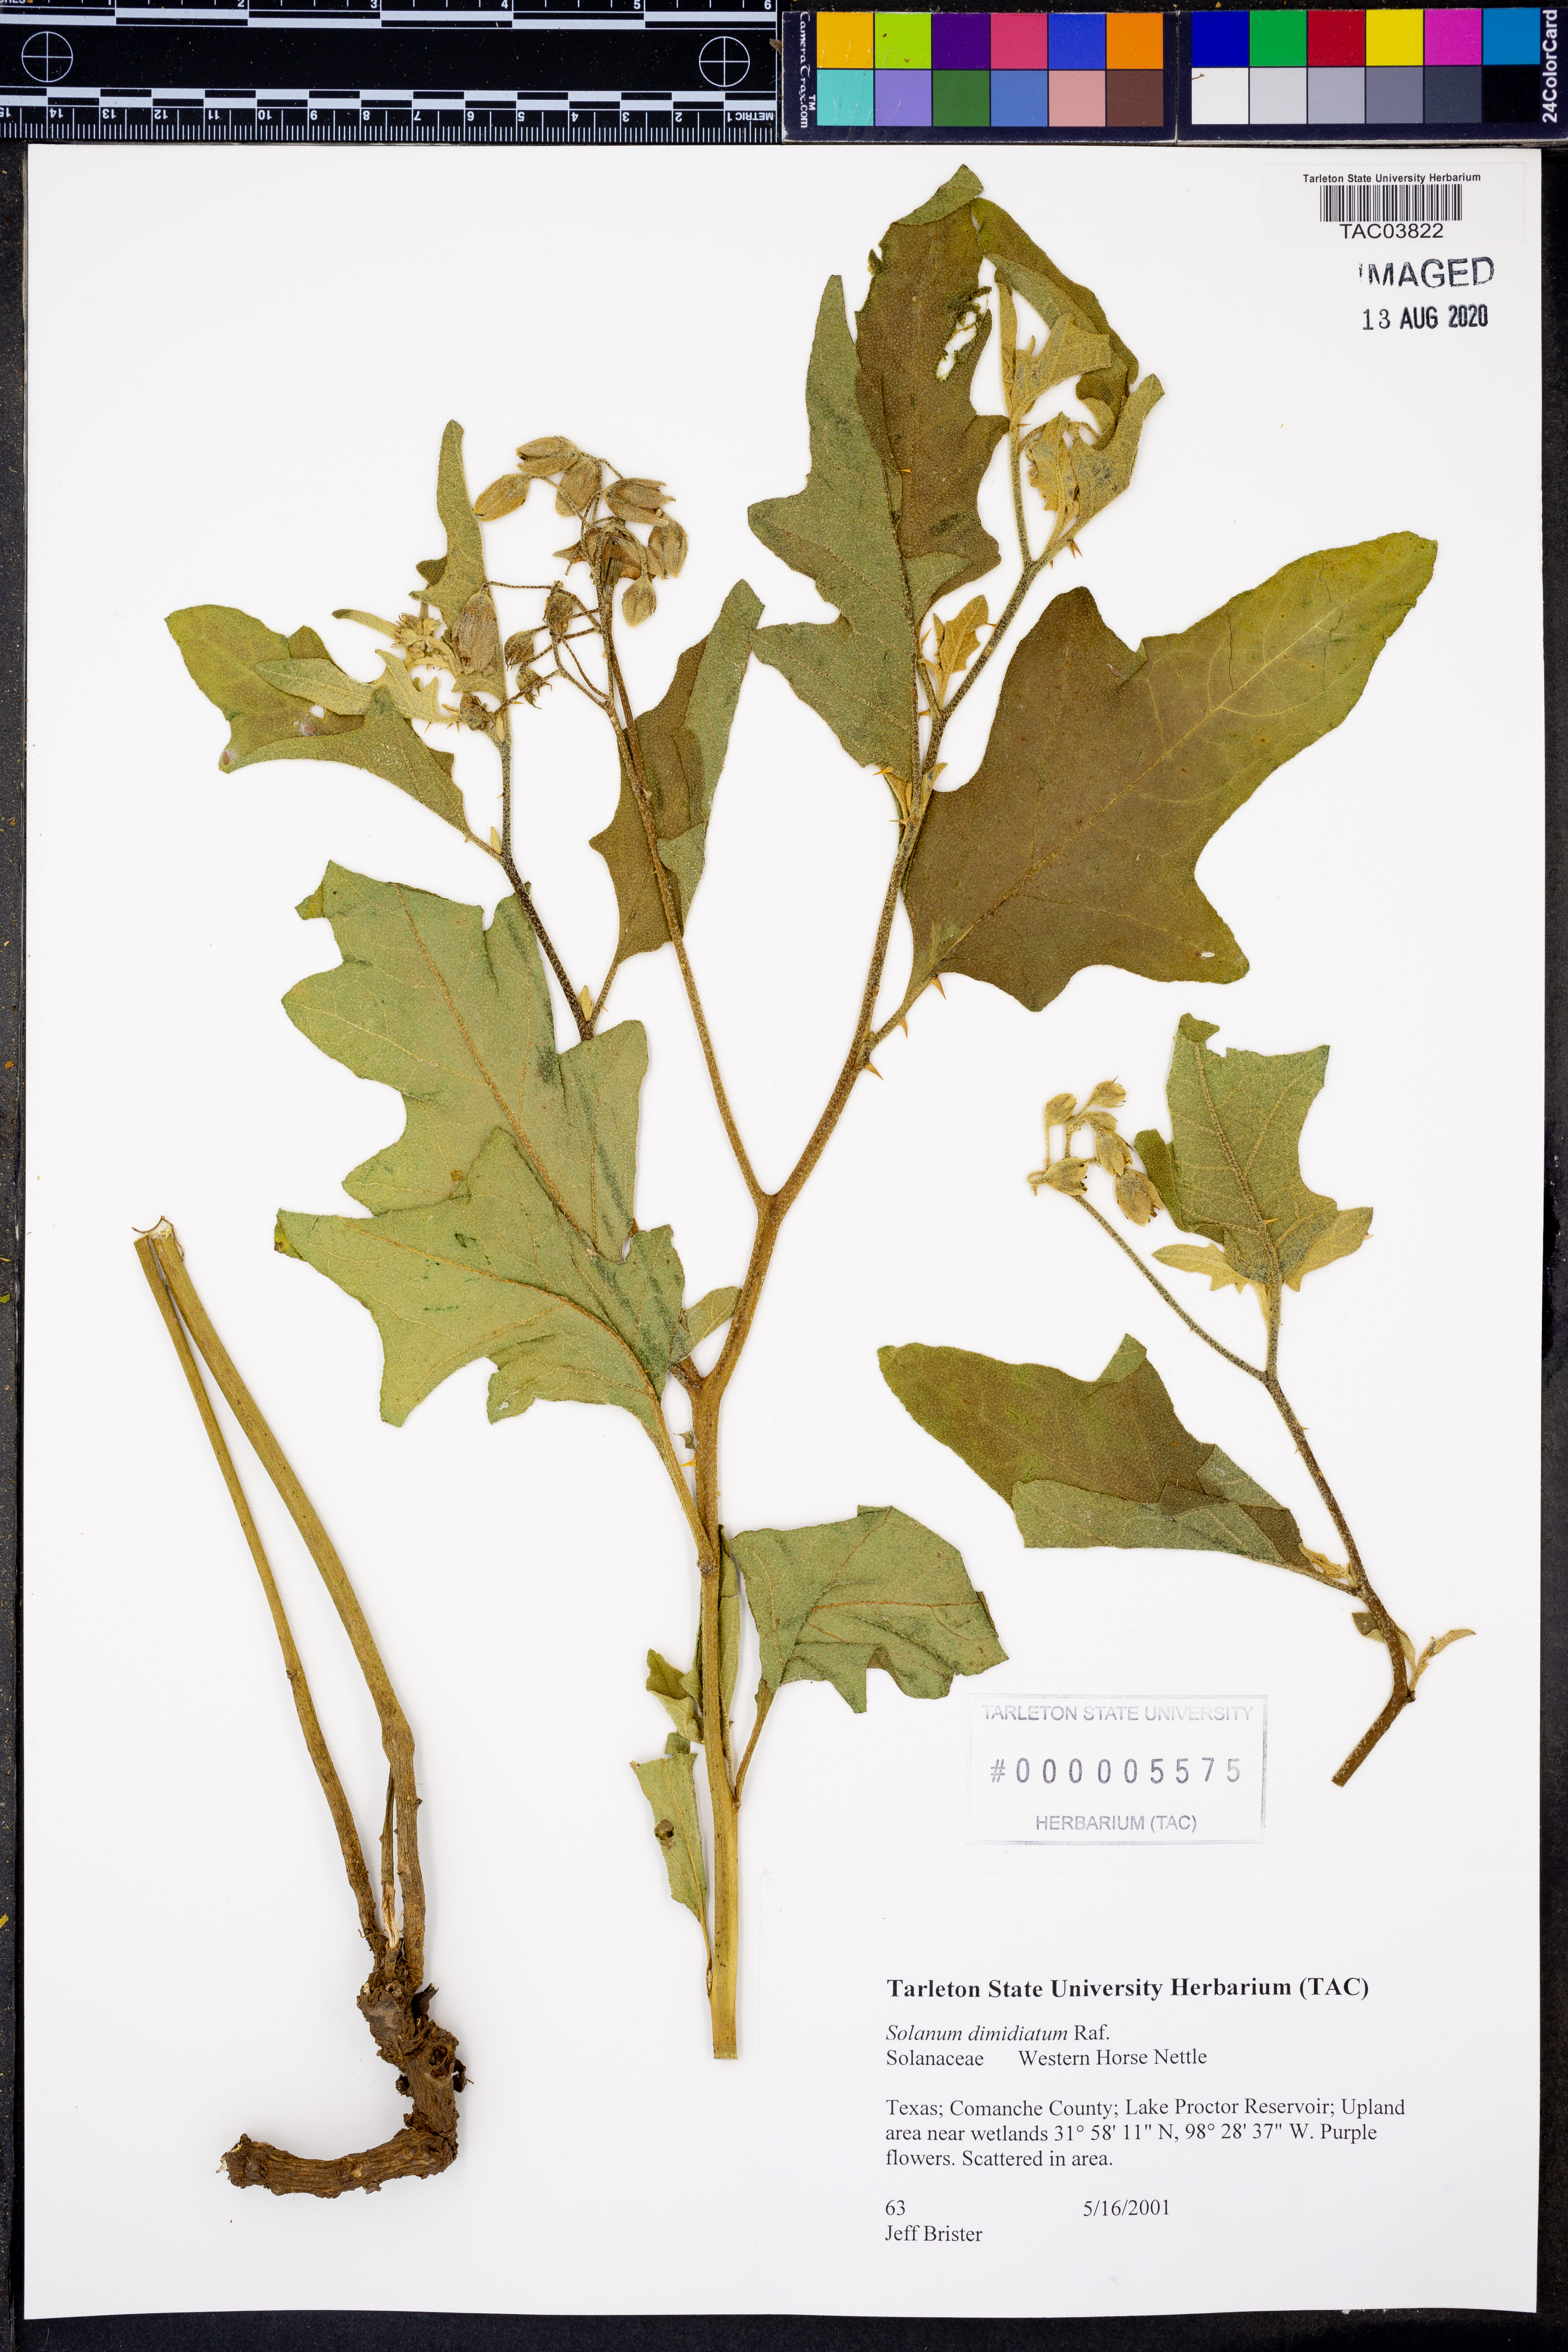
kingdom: Plantae
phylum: Tracheophyta
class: Magnoliopsida
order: Solanales
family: Solanaceae
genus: Solanum
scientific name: Solanum dimidiatum
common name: Carolina horse-nettle
